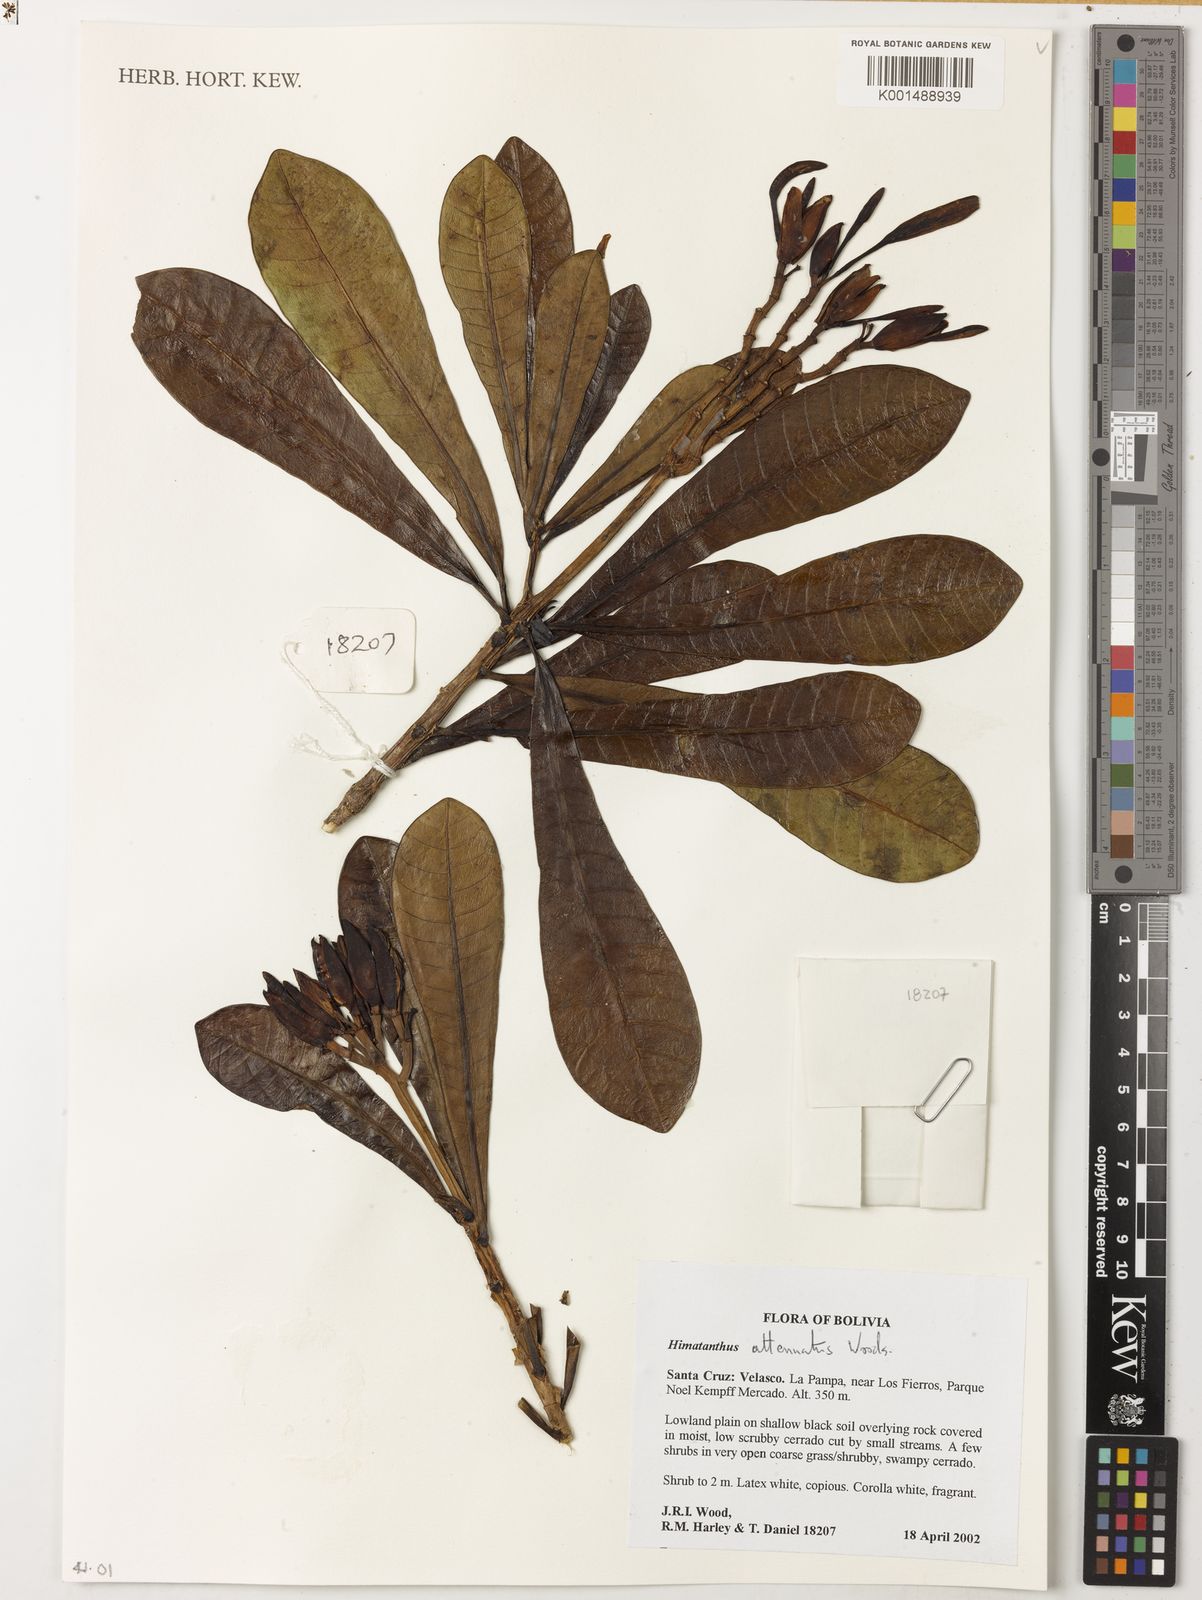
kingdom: Plantae
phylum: Tracheophyta
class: Magnoliopsida
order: Gentianales
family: Apocynaceae
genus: Himatanthus
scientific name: Himatanthus attenuatus
